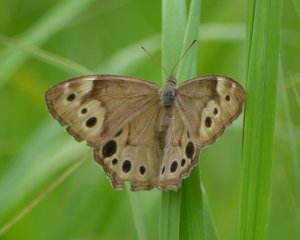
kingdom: Animalia
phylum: Arthropoda
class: Insecta
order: Lepidoptera
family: Nymphalidae
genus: Lethe
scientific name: Lethe anthedon
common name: Northern Pearly-Eye
